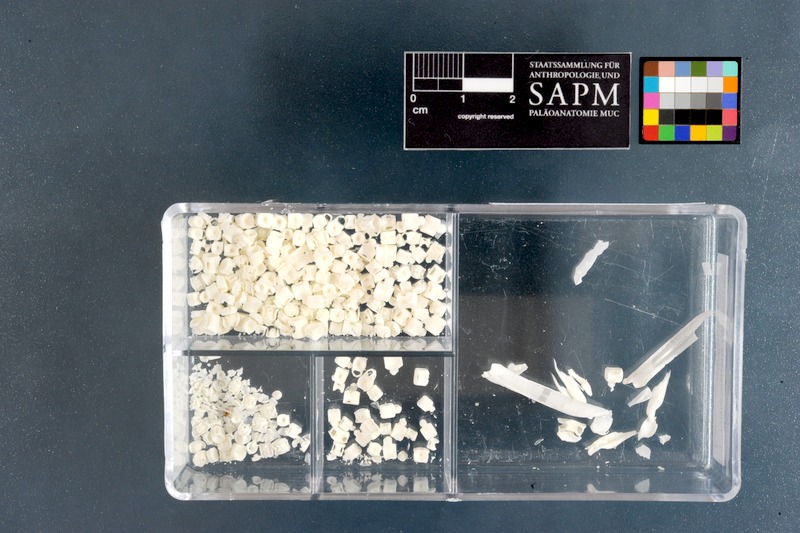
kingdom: Animalia
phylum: Chordata
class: Elasmobranchii
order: Carcharhiniformes
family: Scyliorhinidae
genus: Halaelurus
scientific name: Halaelurus natalensis
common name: Tiger catshark
